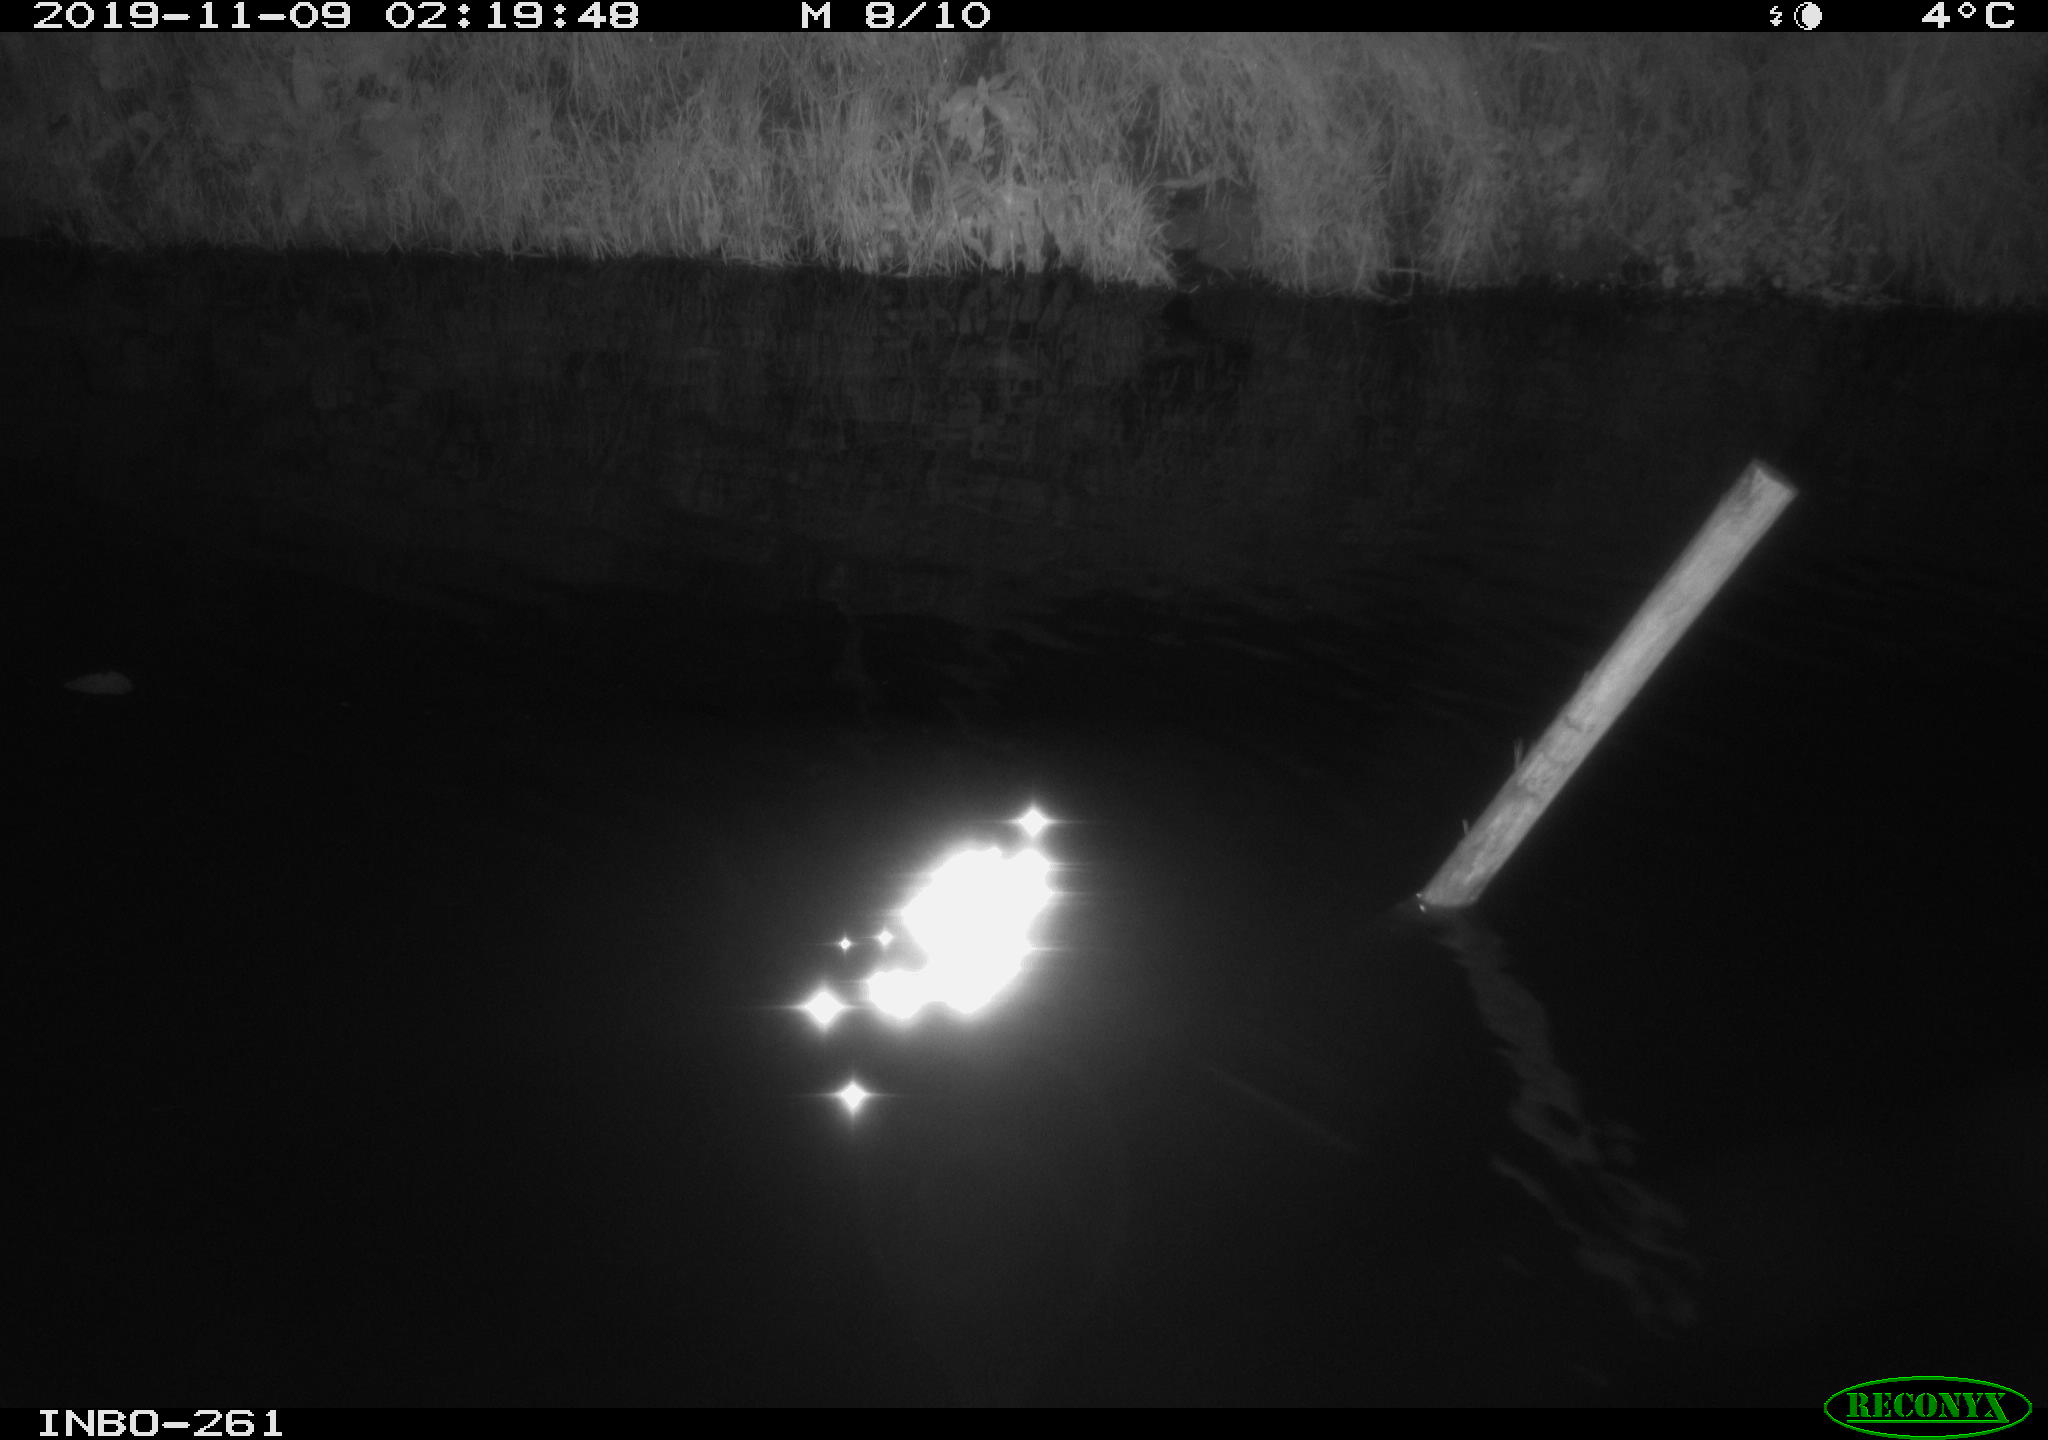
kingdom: Animalia
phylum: Chordata
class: Aves
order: Anseriformes
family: Anatidae
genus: Anas
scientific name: Anas platyrhynchos
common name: Mallard
